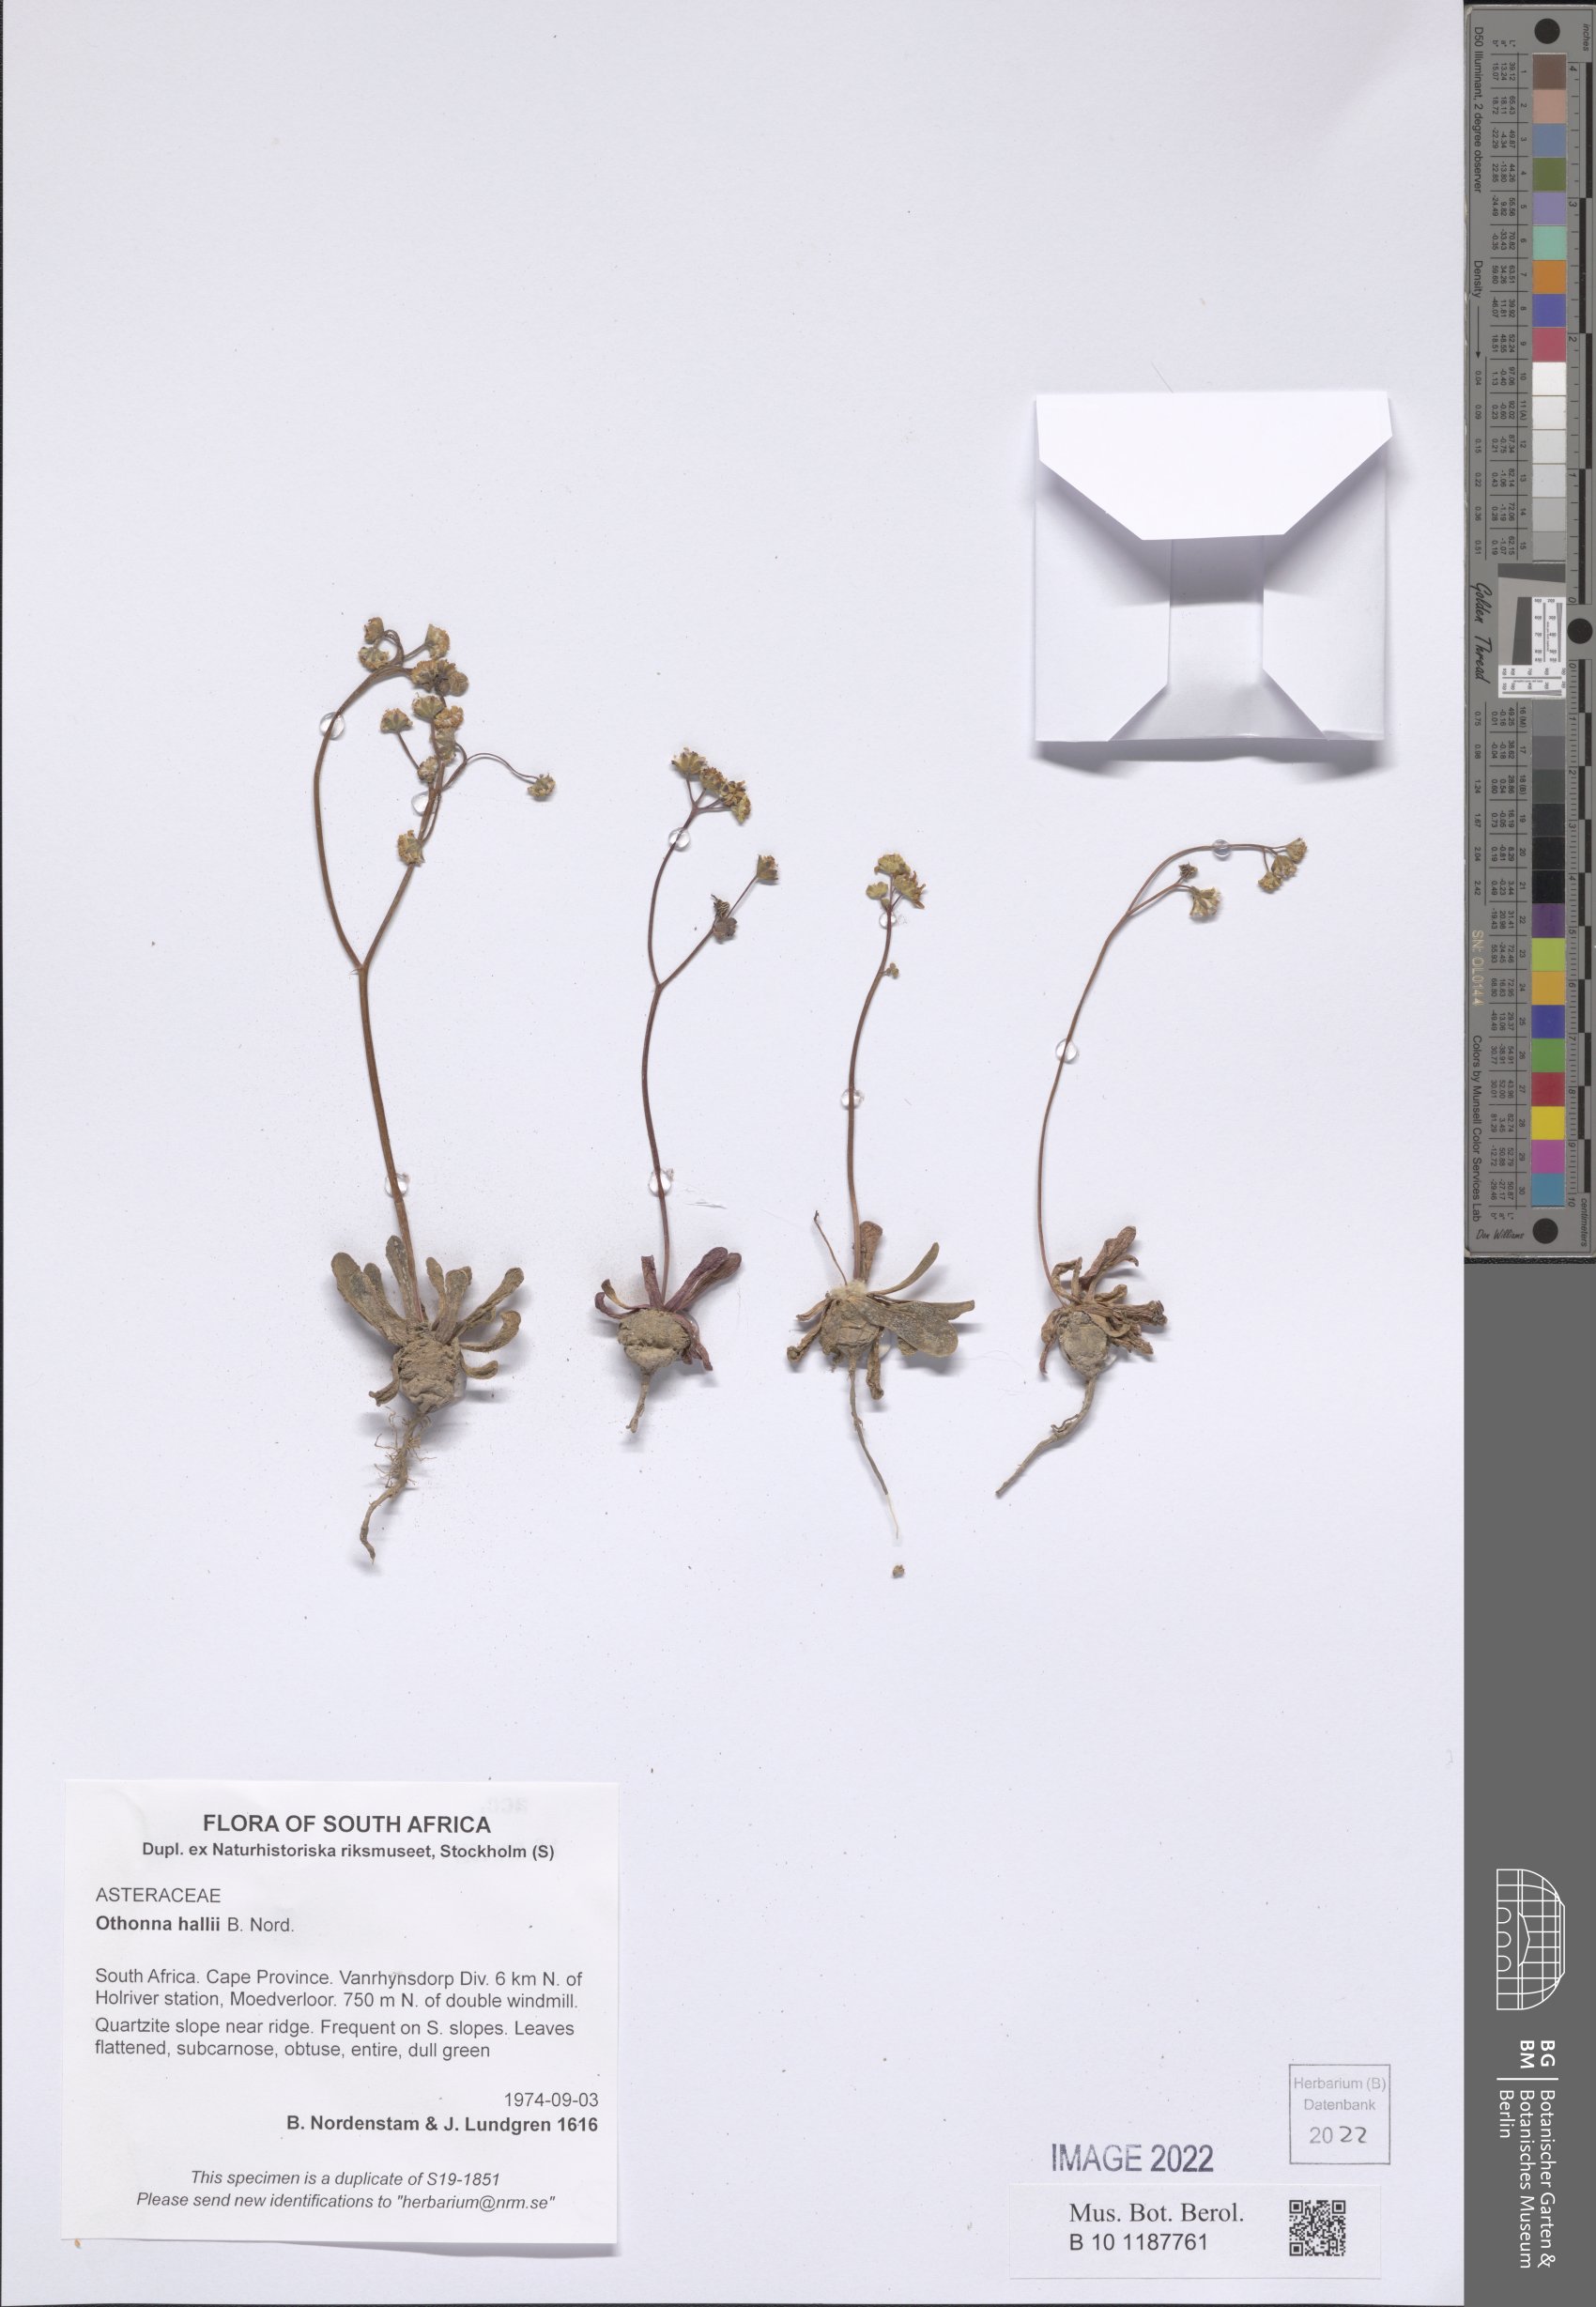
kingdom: Plantae
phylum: Tracheophyta
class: Magnoliopsida
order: Asterales
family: Asteraceae
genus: Othonna
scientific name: Othonna hallii
